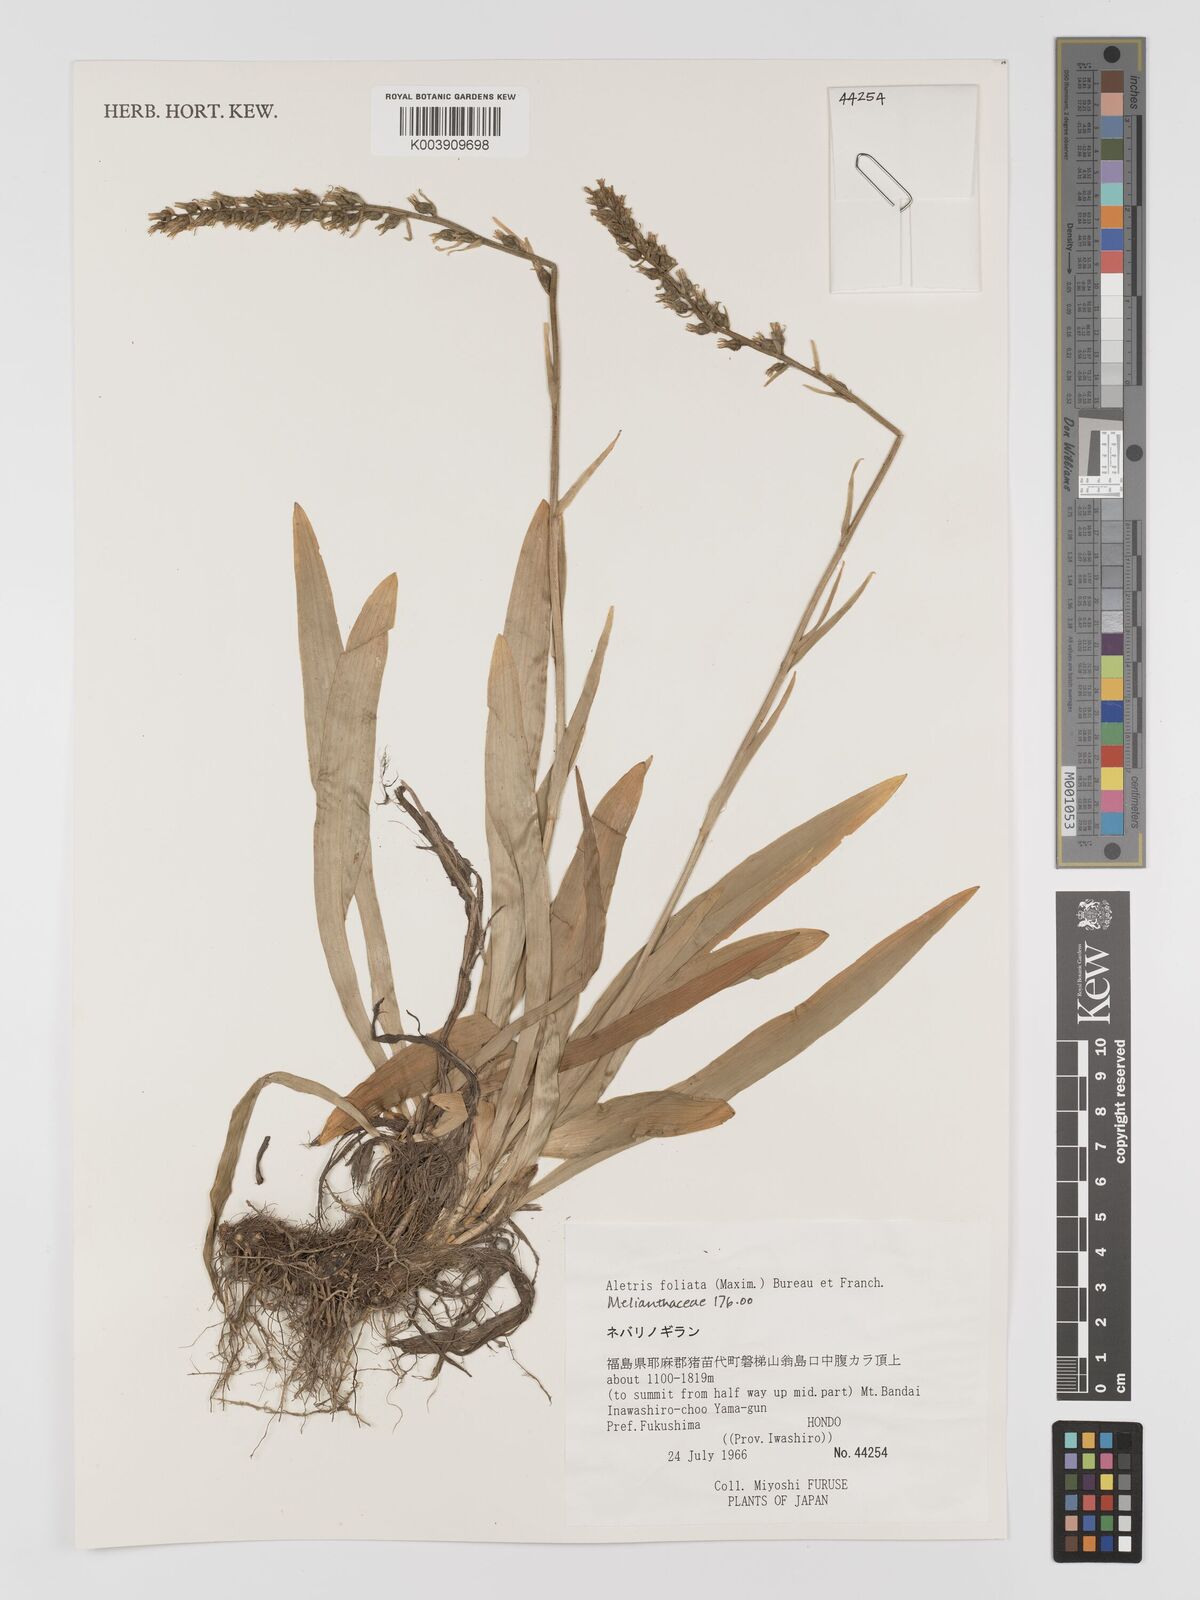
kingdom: Plantae
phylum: Tracheophyta
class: Liliopsida
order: Dioscoreales
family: Nartheciaceae
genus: Aletris
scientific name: Aletris foliata
